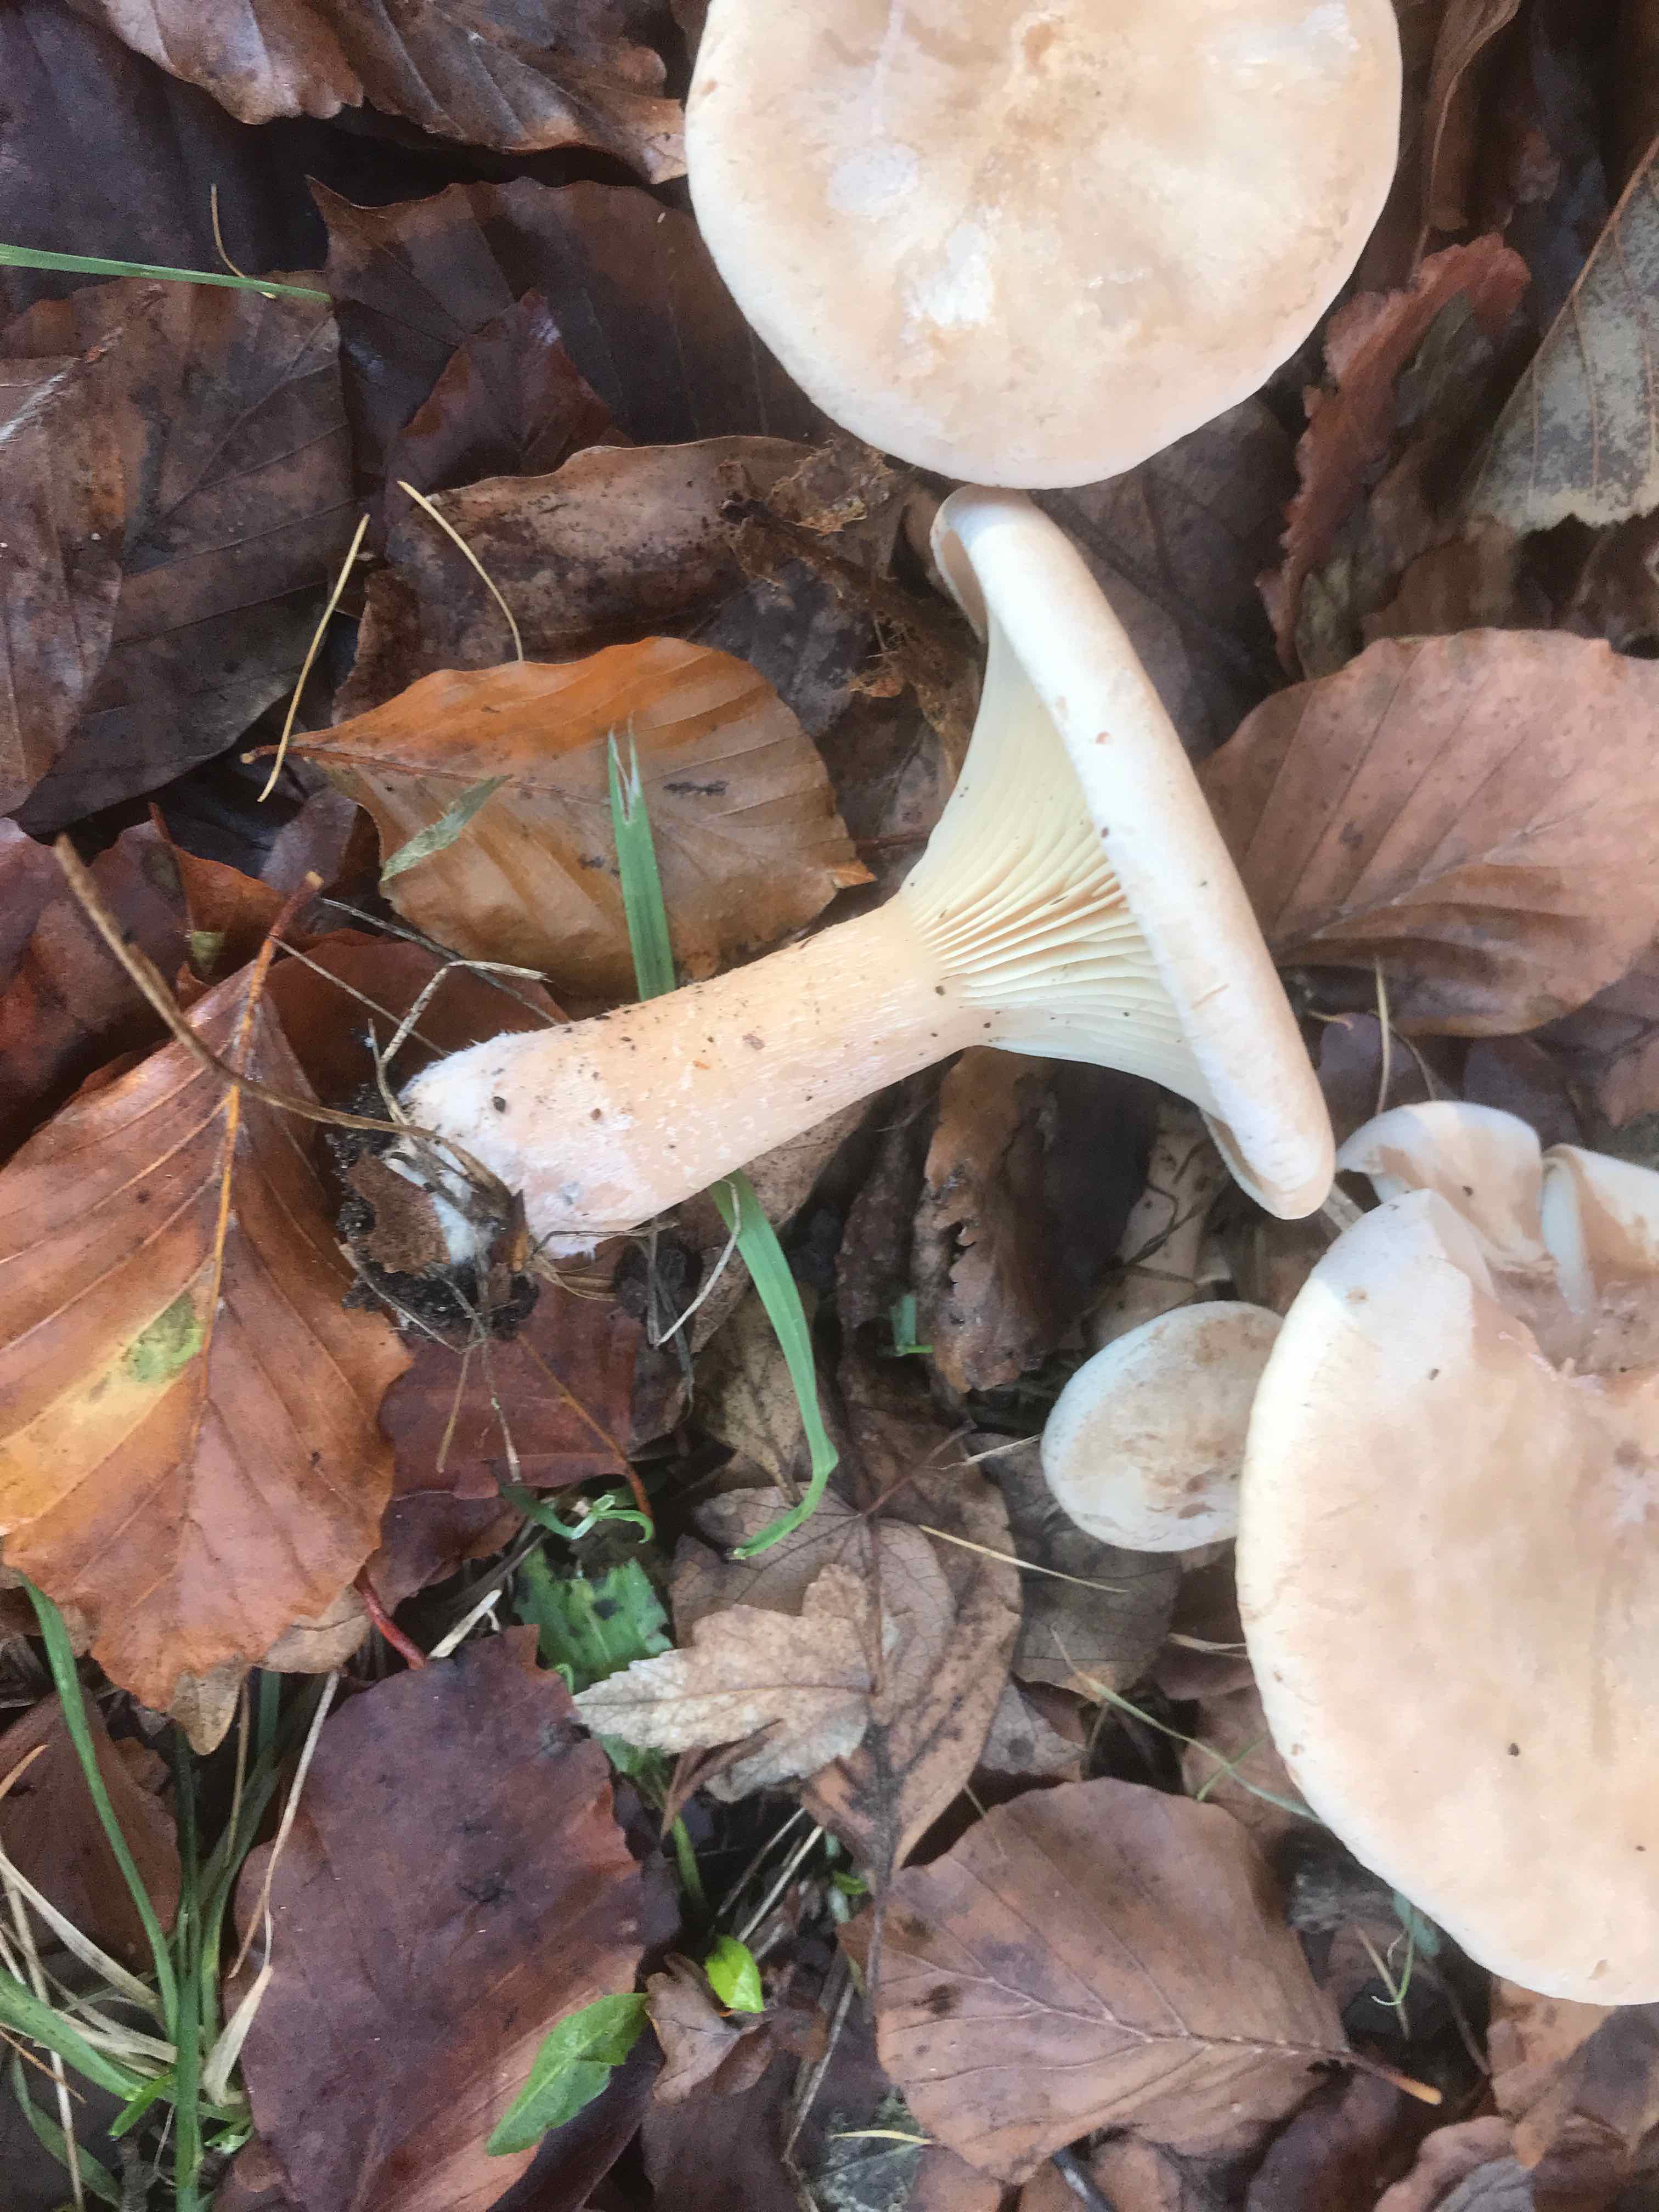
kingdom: Fungi
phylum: Basidiomycota
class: Agaricomycetes
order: Agaricales
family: Tricholomataceae
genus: Infundibulicybe
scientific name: Infundibulicybe geotropa
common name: stor tragthat
